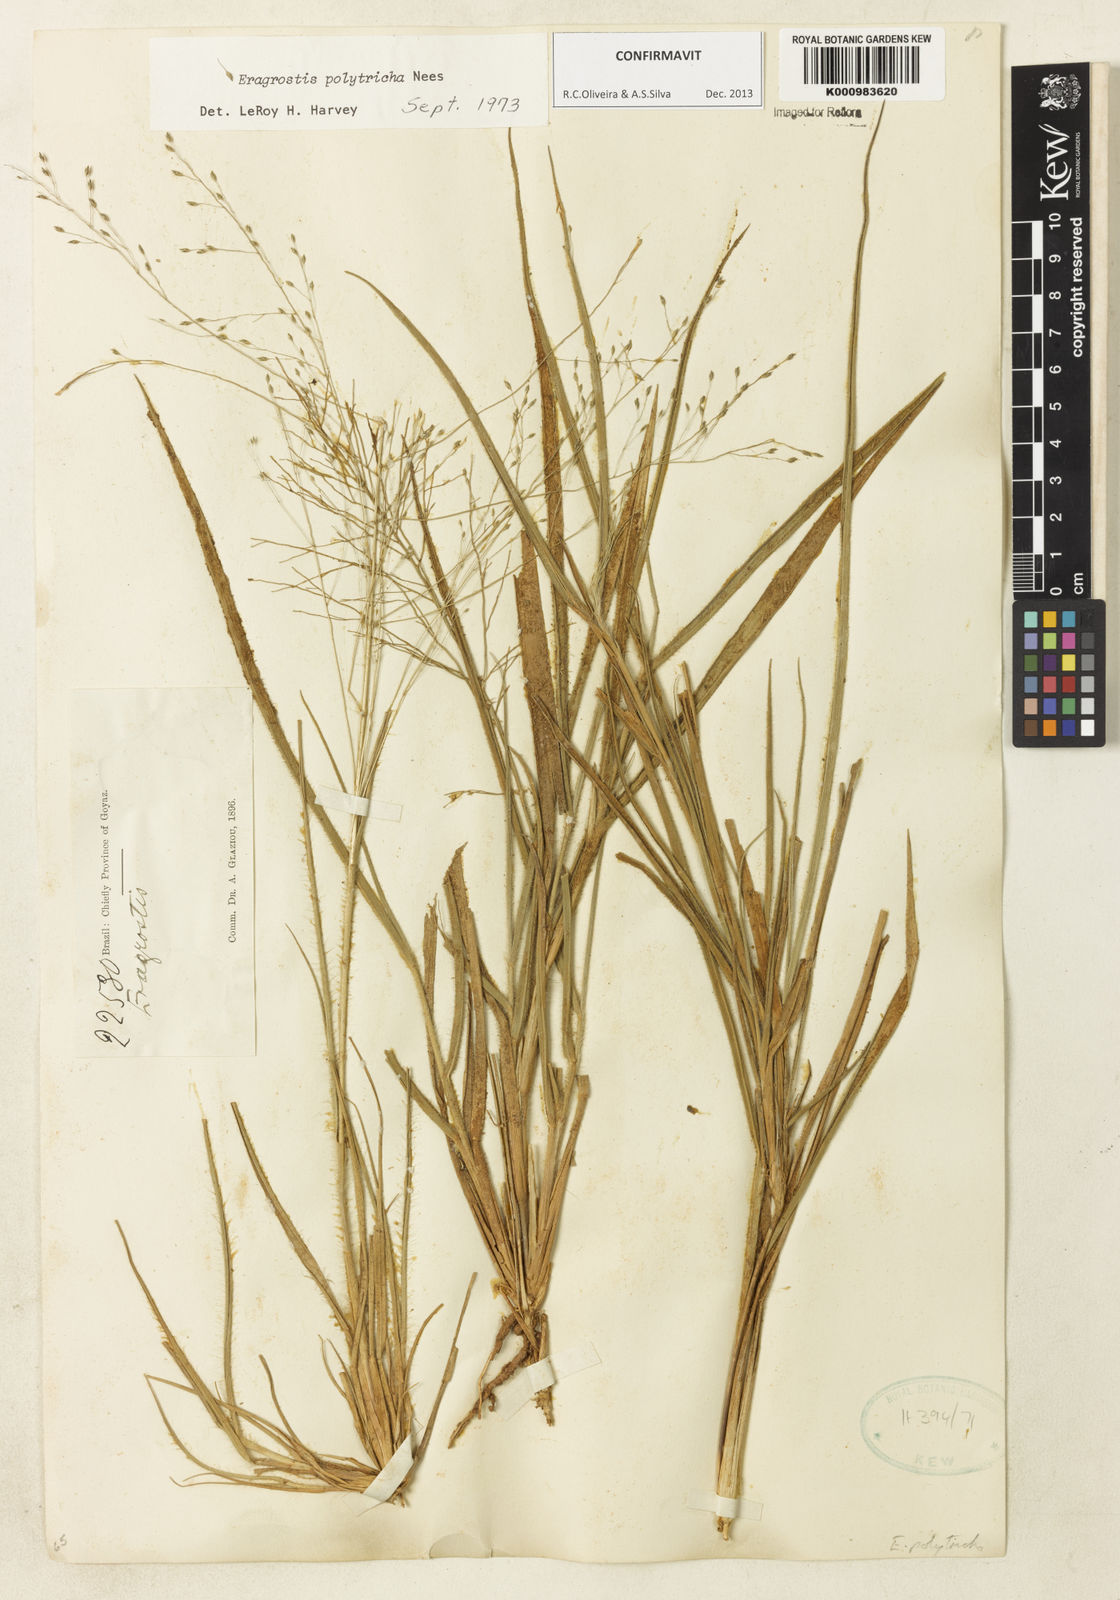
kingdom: Plantae
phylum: Tracheophyta
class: Liliopsida
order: Poales
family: Poaceae
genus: Eragrostis
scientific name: Eragrostis polytricha
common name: Hairy-sheath love grass
